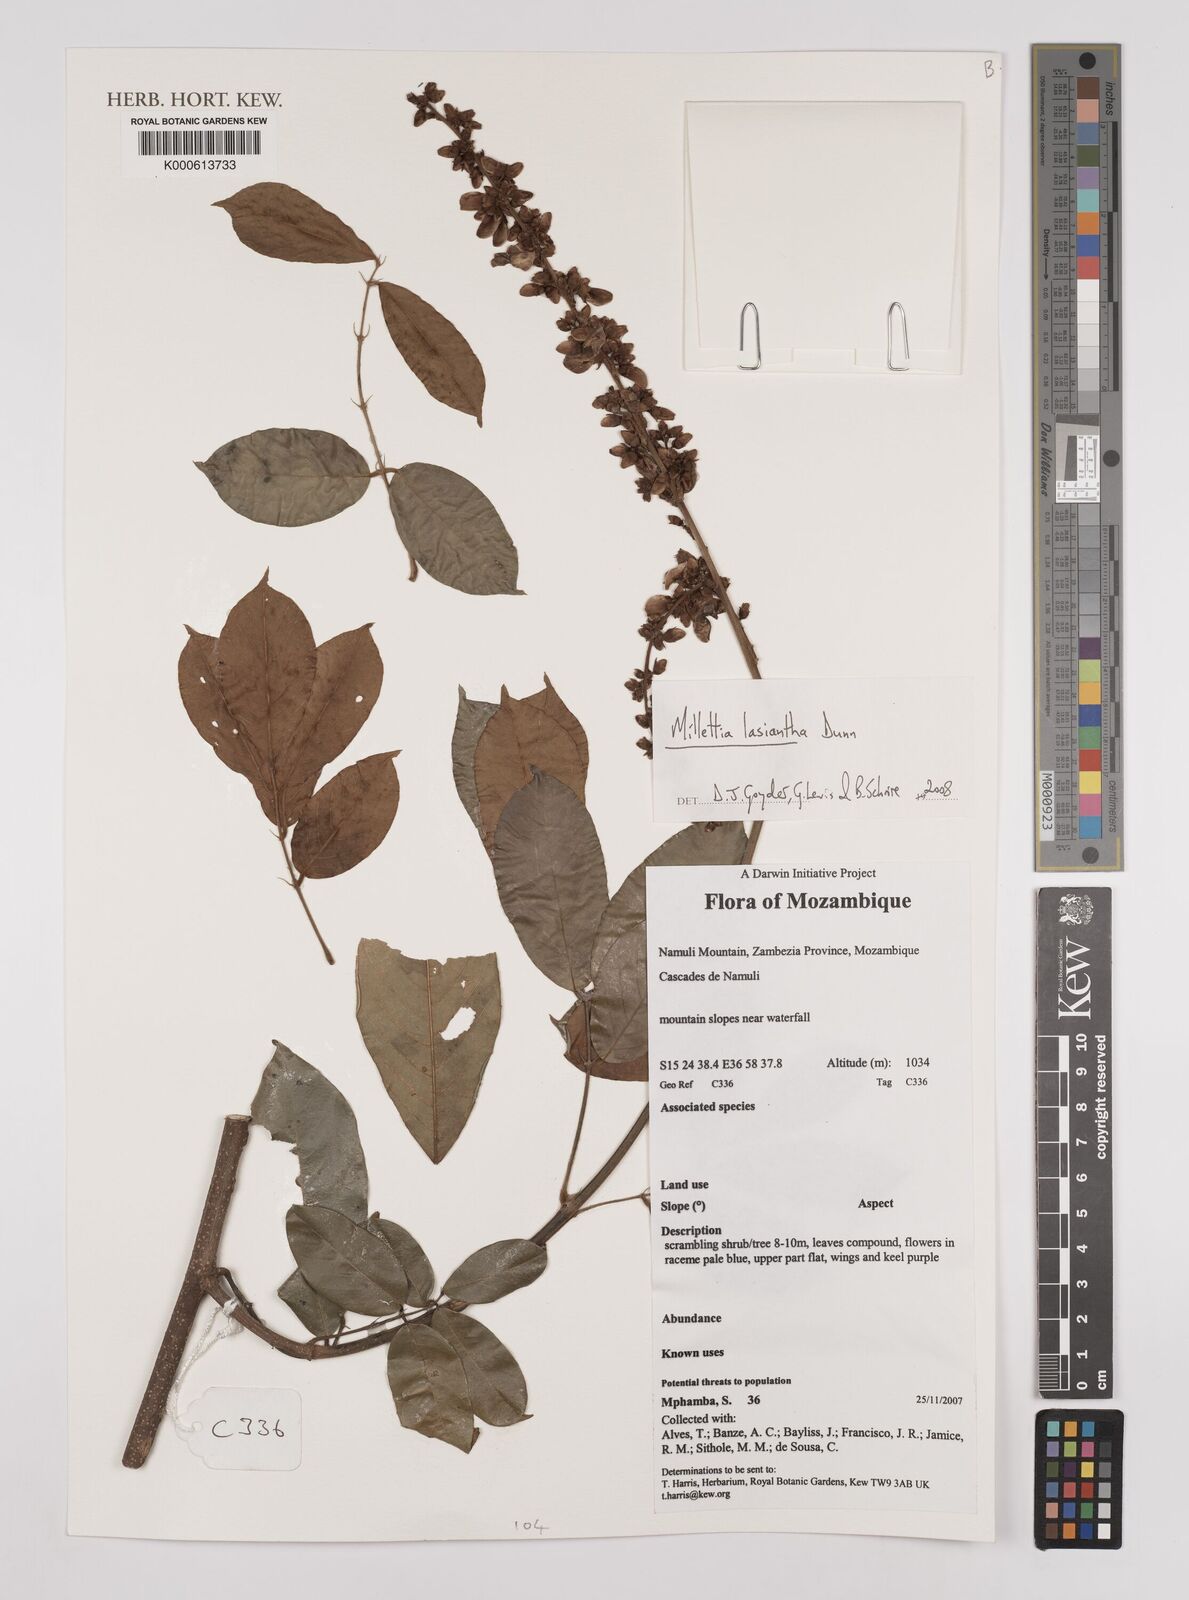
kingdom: Plantae
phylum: Tracheophyta
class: Magnoliopsida
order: Fabales
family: Fabaceae
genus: Millettia
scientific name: Millettia lasiantha
